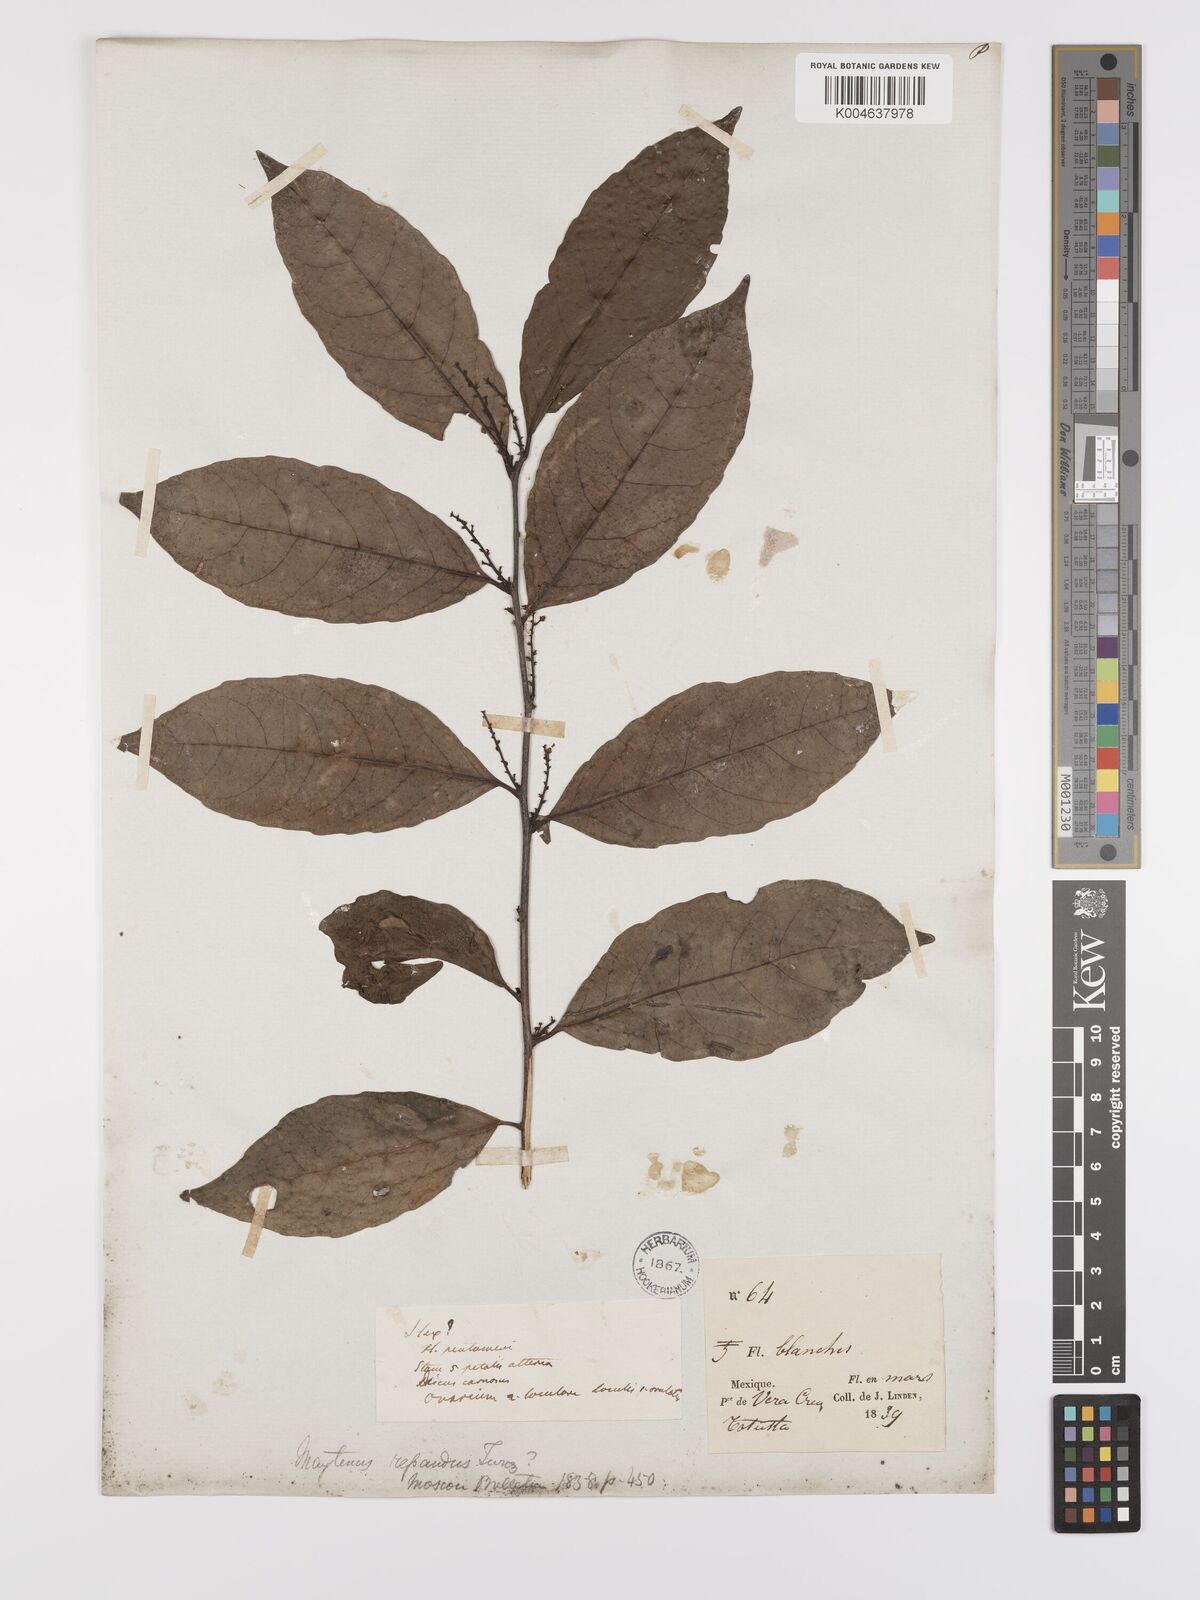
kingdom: Plantae
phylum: Tracheophyta
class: Magnoliopsida
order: Celastrales
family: Celastraceae
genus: Maytenus
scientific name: Maytenus
